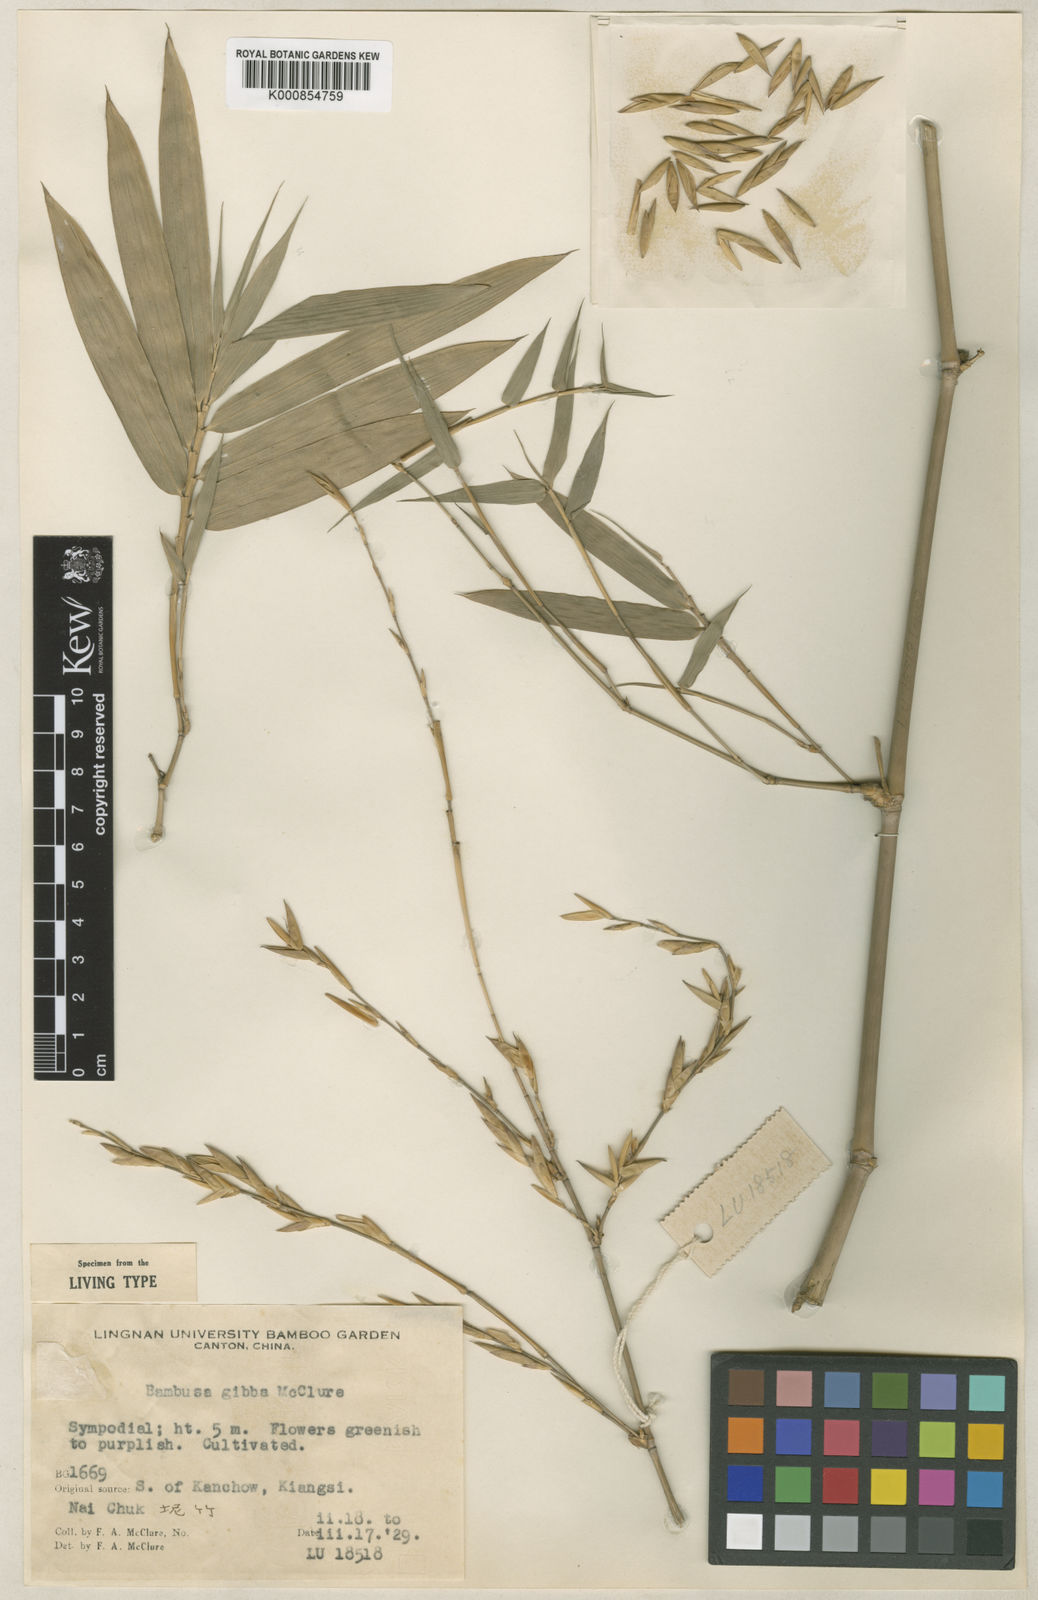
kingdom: Plantae
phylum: Tracheophyta
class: Liliopsida
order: Poales
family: Poaceae
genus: Bambusa
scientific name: Bambusa gibba
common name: Nai bamboo
